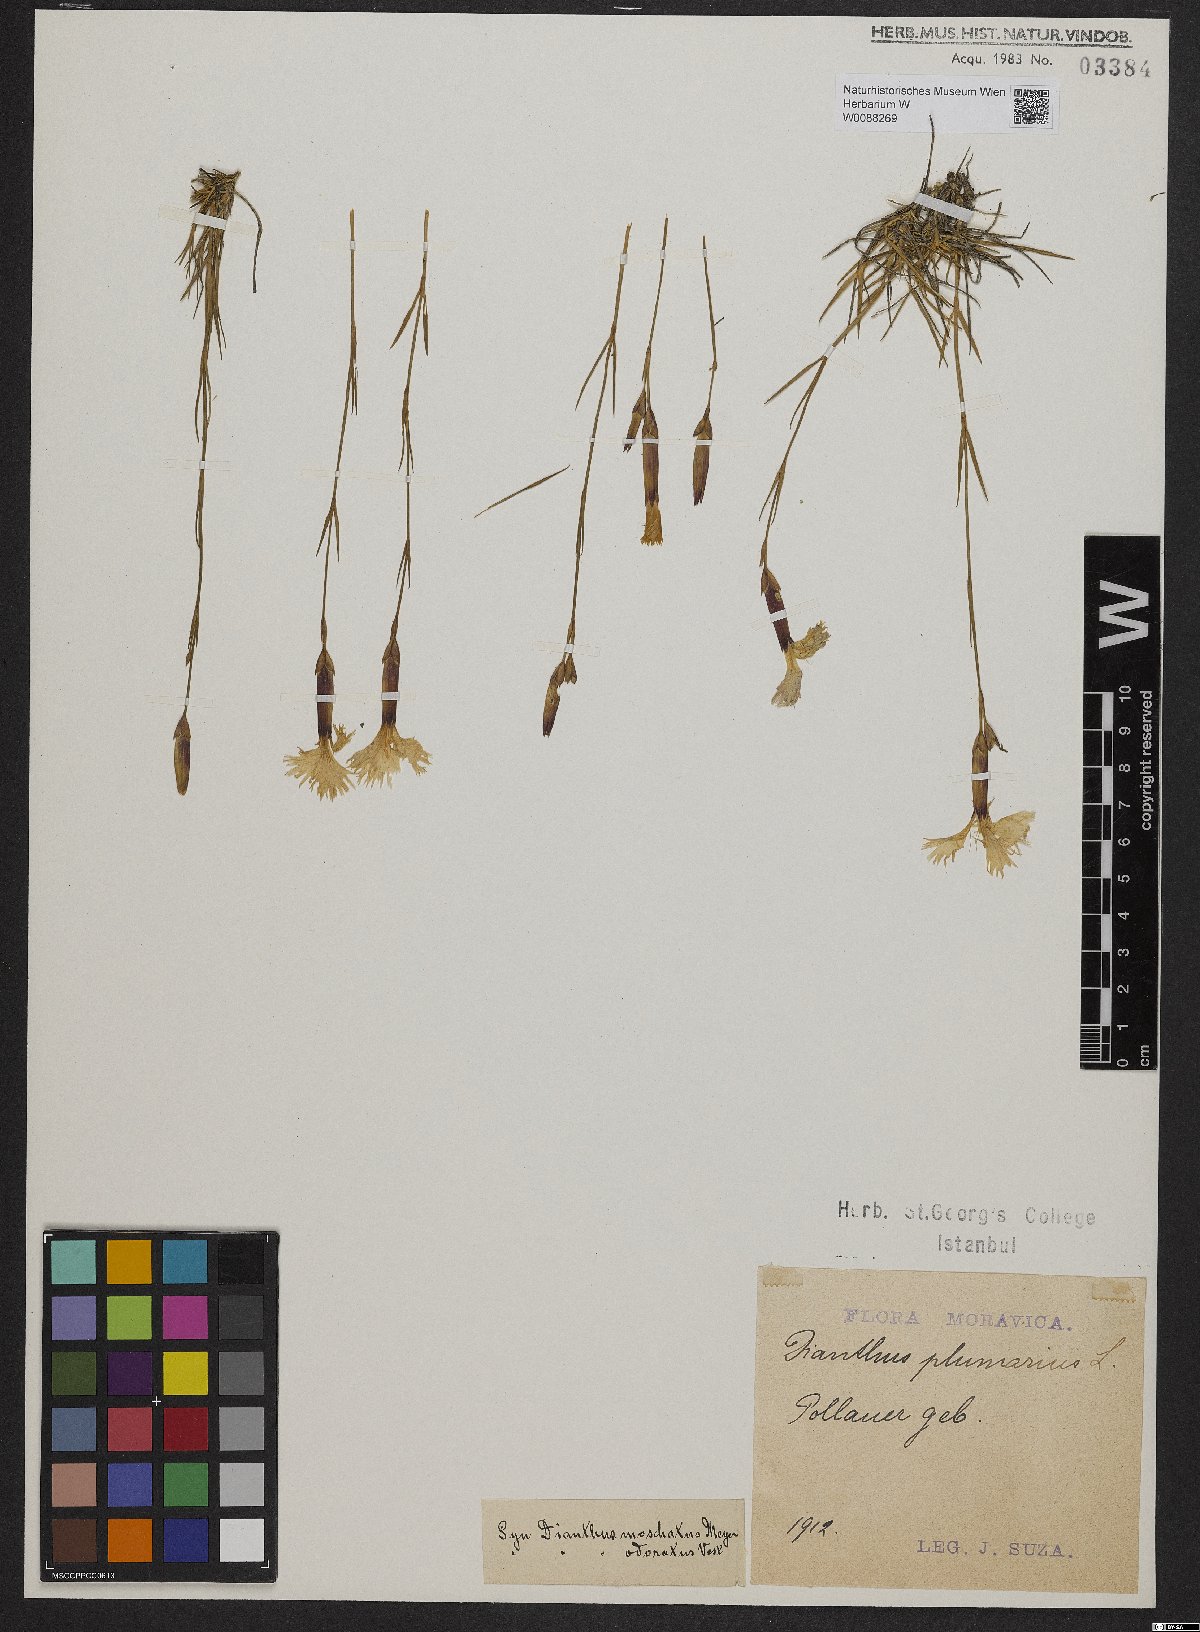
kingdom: Plantae
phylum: Tracheophyta
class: Magnoliopsida
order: Caryophyllales
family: Caryophyllaceae
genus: Dianthus
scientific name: Dianthus plumarius
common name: Pink
